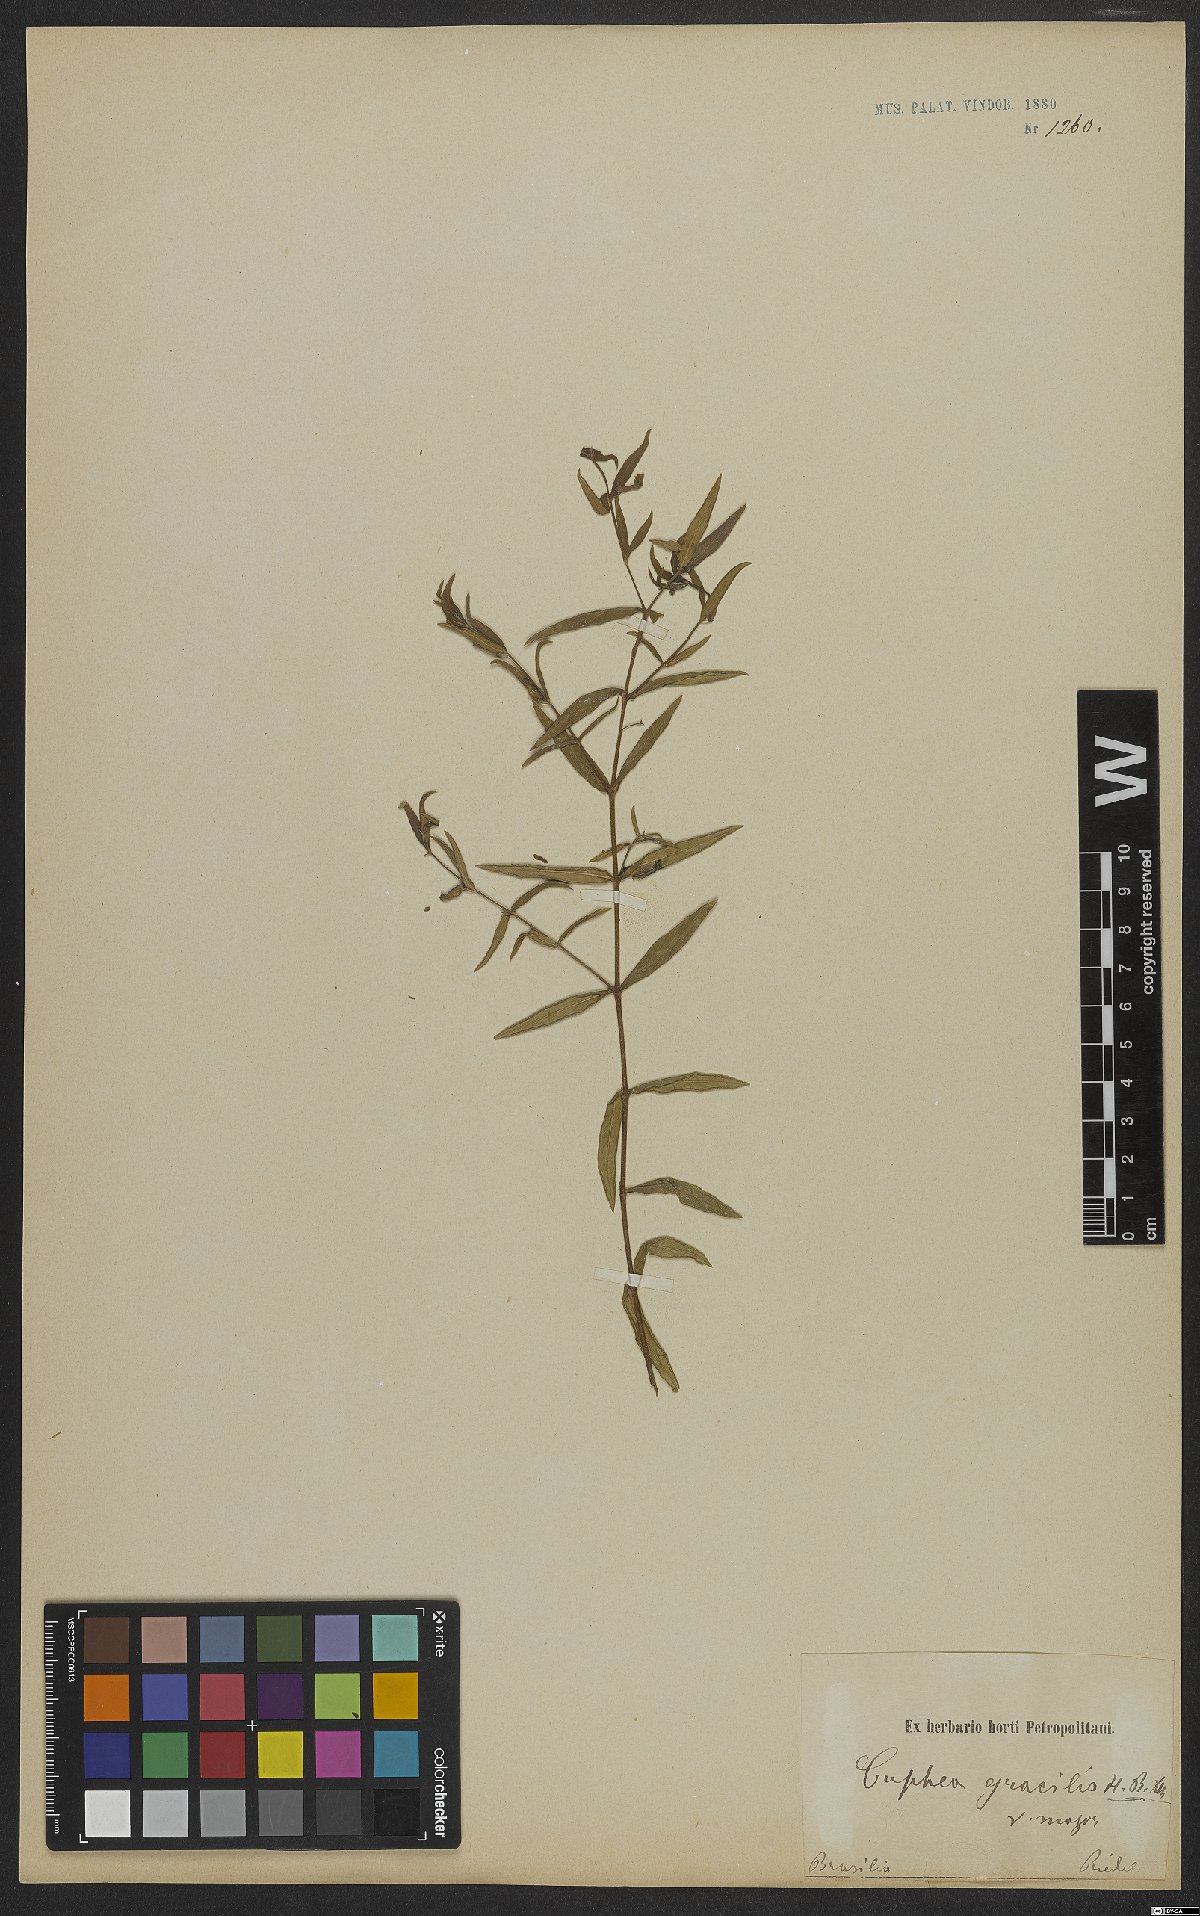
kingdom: Plantae
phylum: Tracheophyta
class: Magnoliopsida
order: Myrtales
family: Lythraceae
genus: Cuphea
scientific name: Cuphea gracilis
